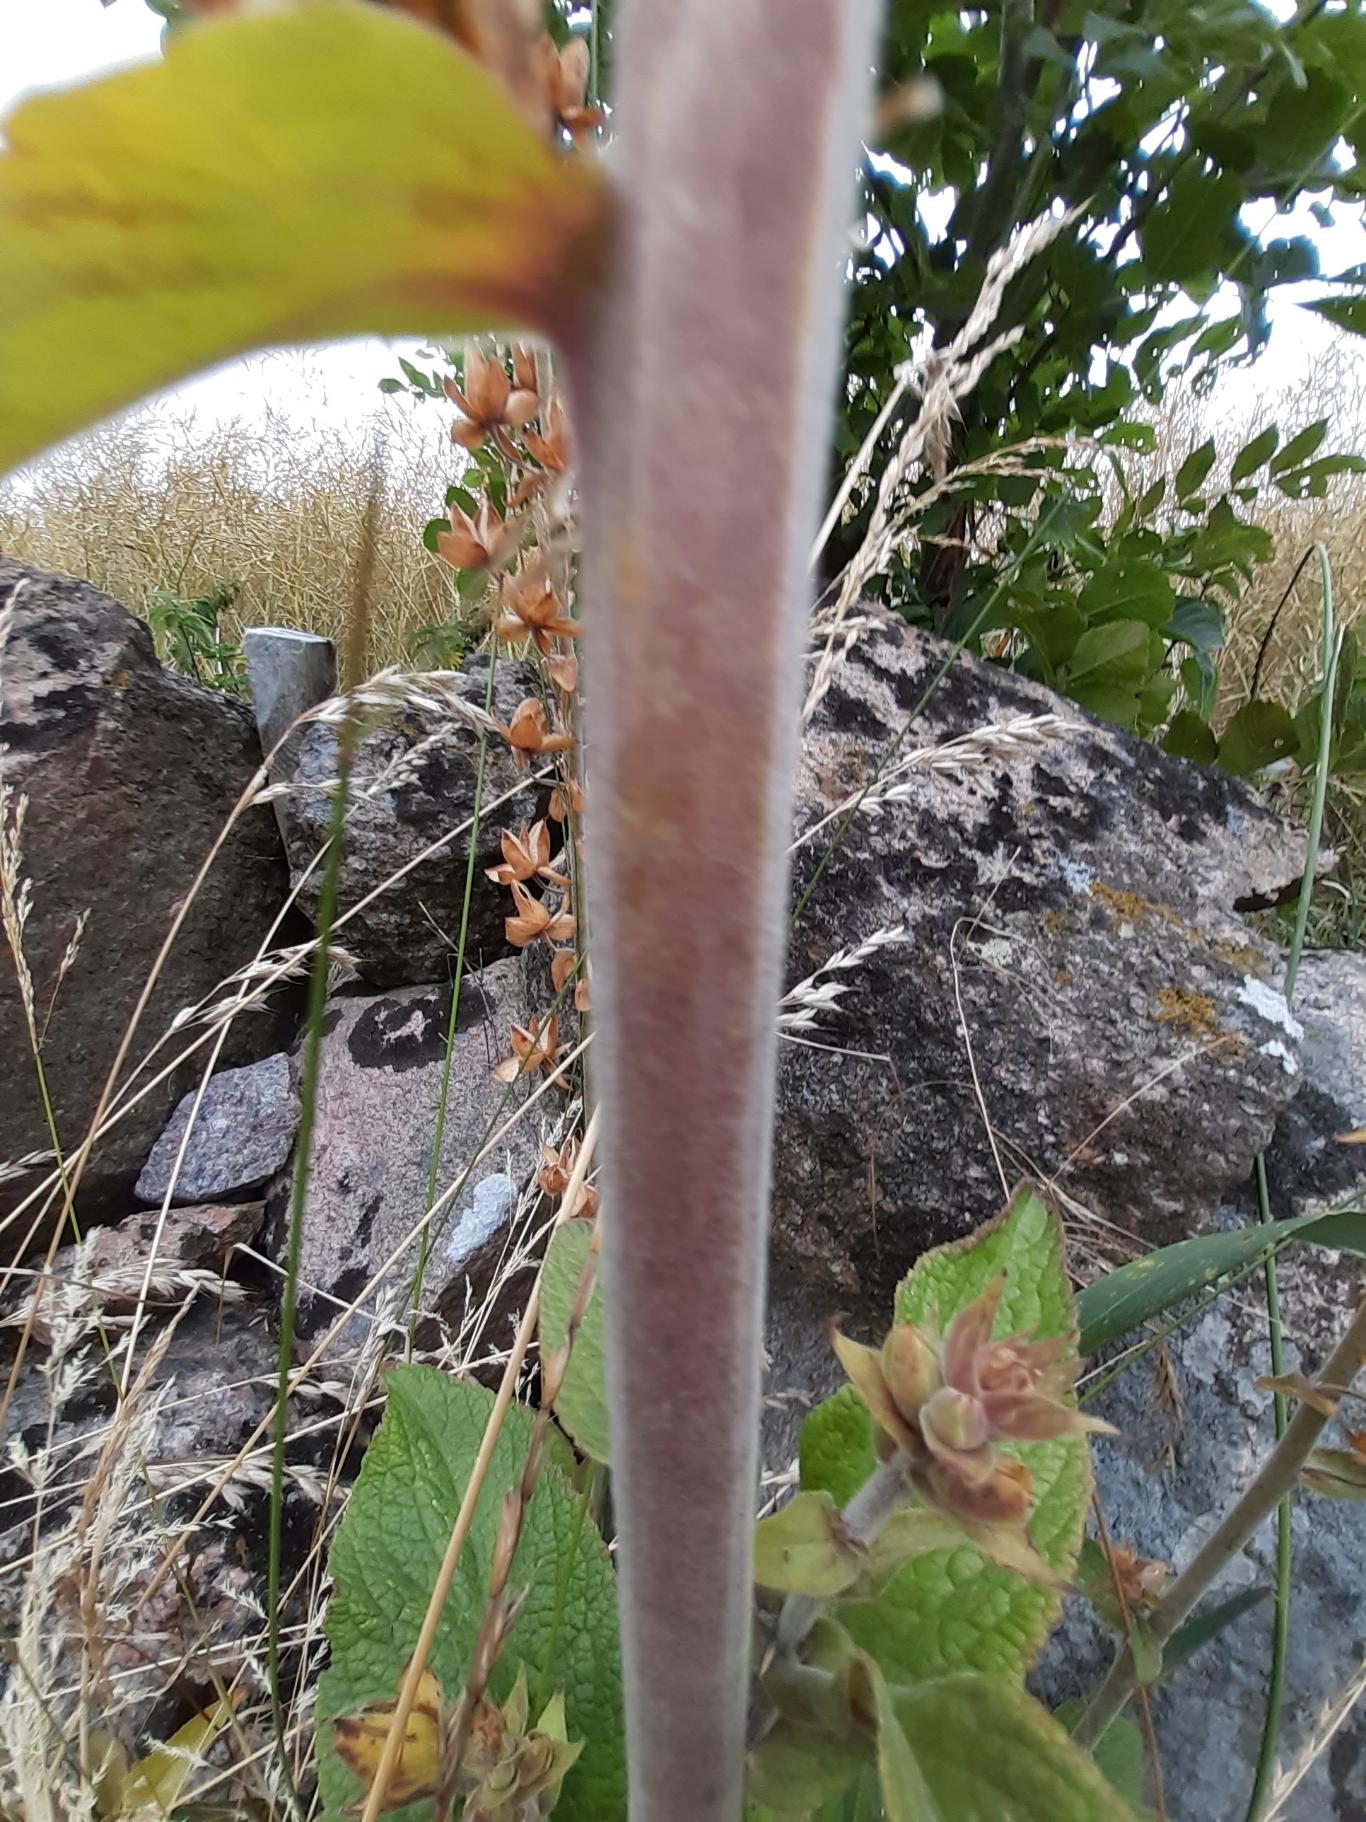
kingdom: Plantae
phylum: Tracheophyta
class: Magnoliopsida
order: Lamiales
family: Plantaginaceae
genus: Digitalis
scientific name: Digitalis purpurea
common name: Almindelig fingerbøl
